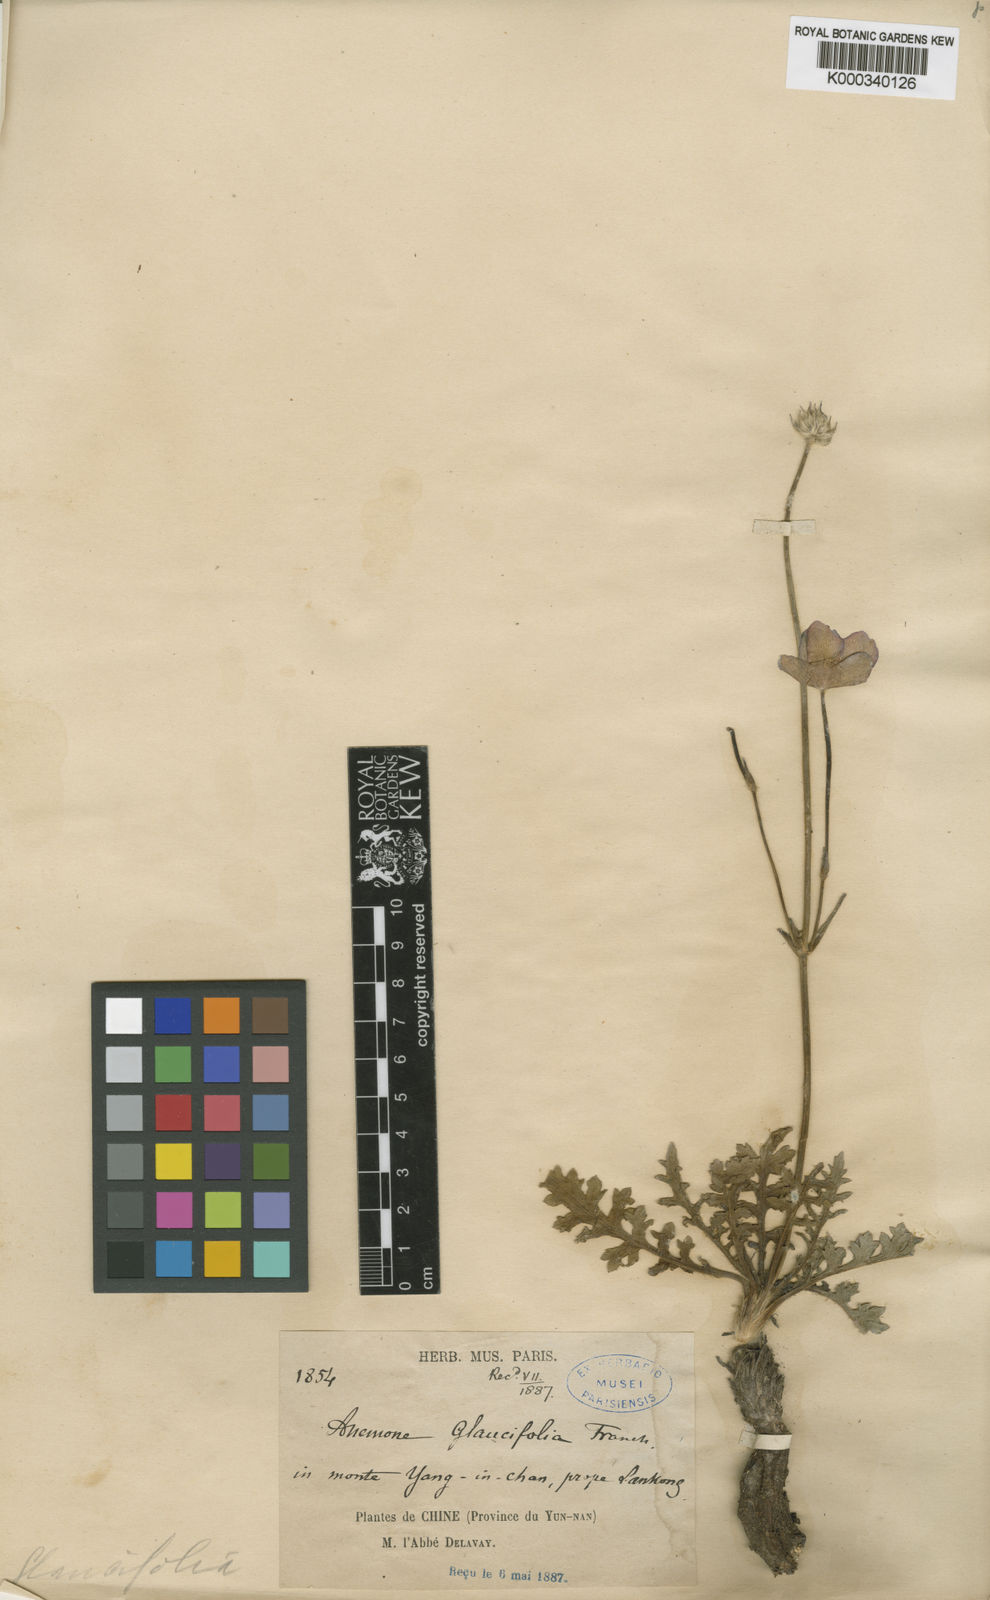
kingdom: Plantae
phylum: Tracheophyta
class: Magnoliopsida
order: Ranunculales
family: Ranunculaceae
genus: Anemone
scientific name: Anemone glaucifolia
